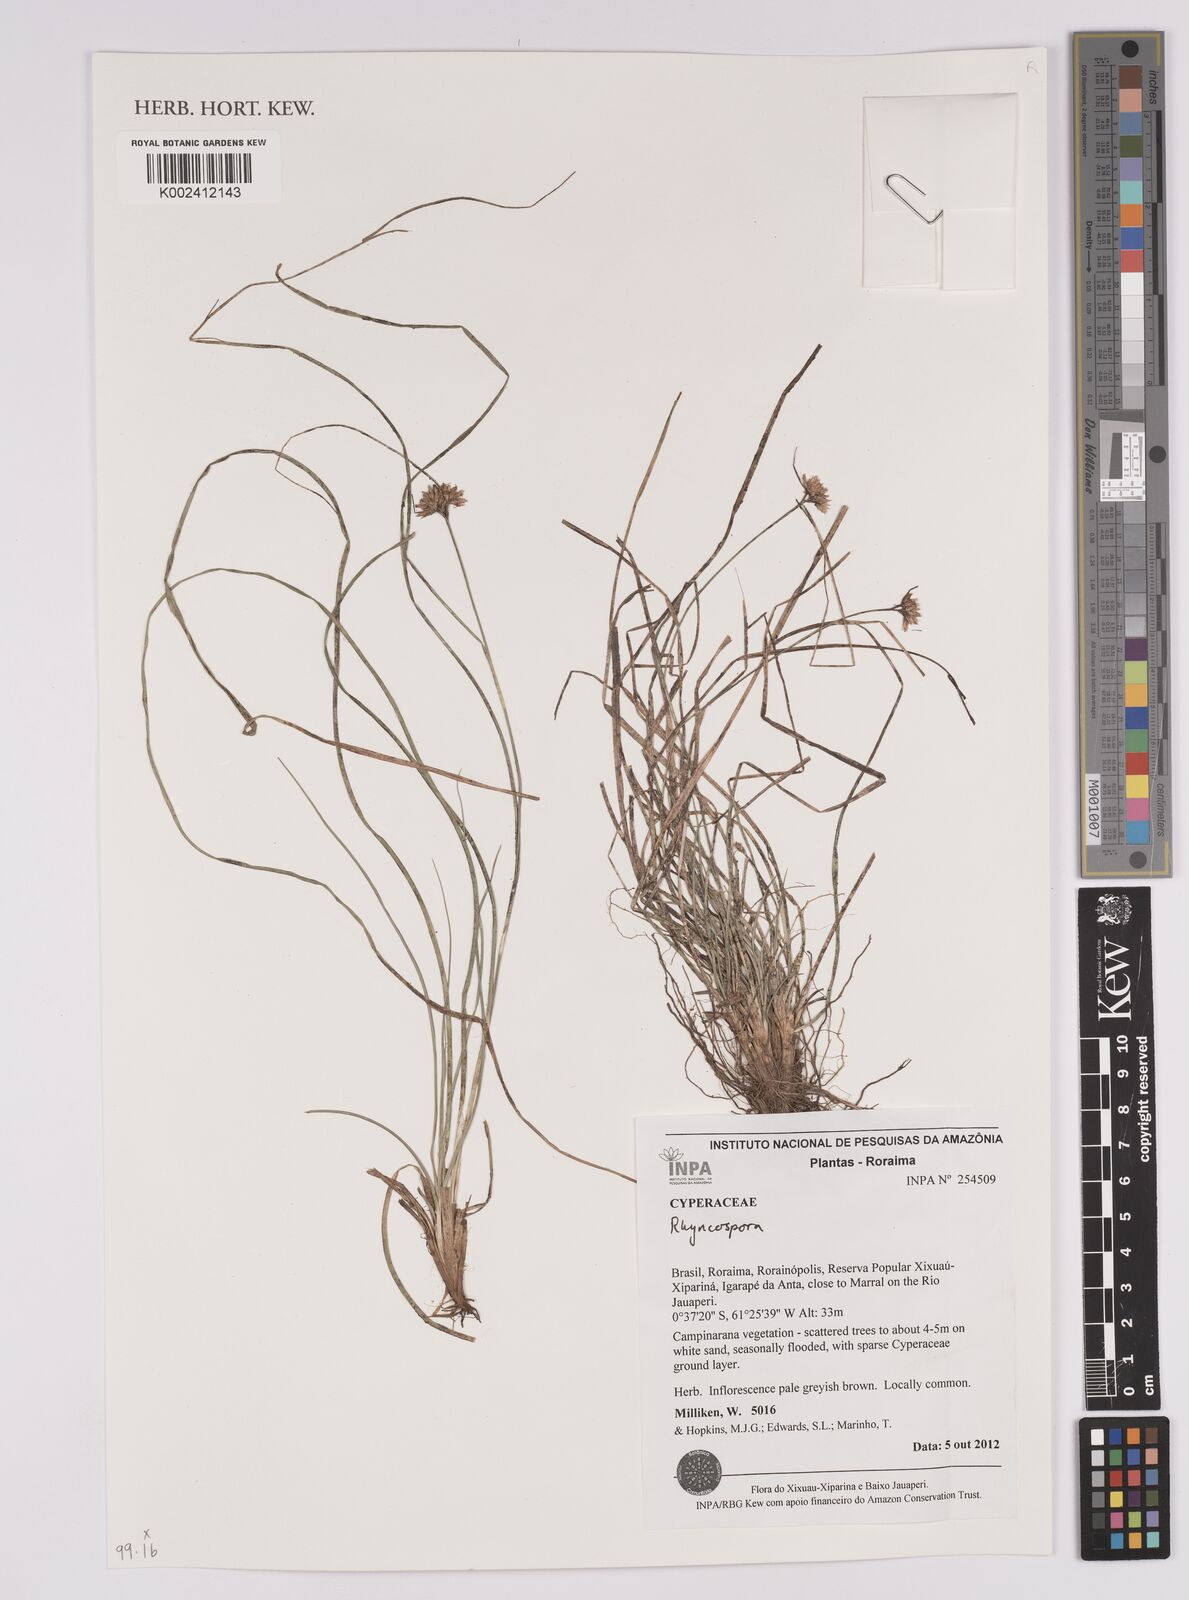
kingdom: Plantae
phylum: Tracheophyta
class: Liliopsida
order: Poales
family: Cyperaceae
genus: Rhynchospora
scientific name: Rhynchospora
